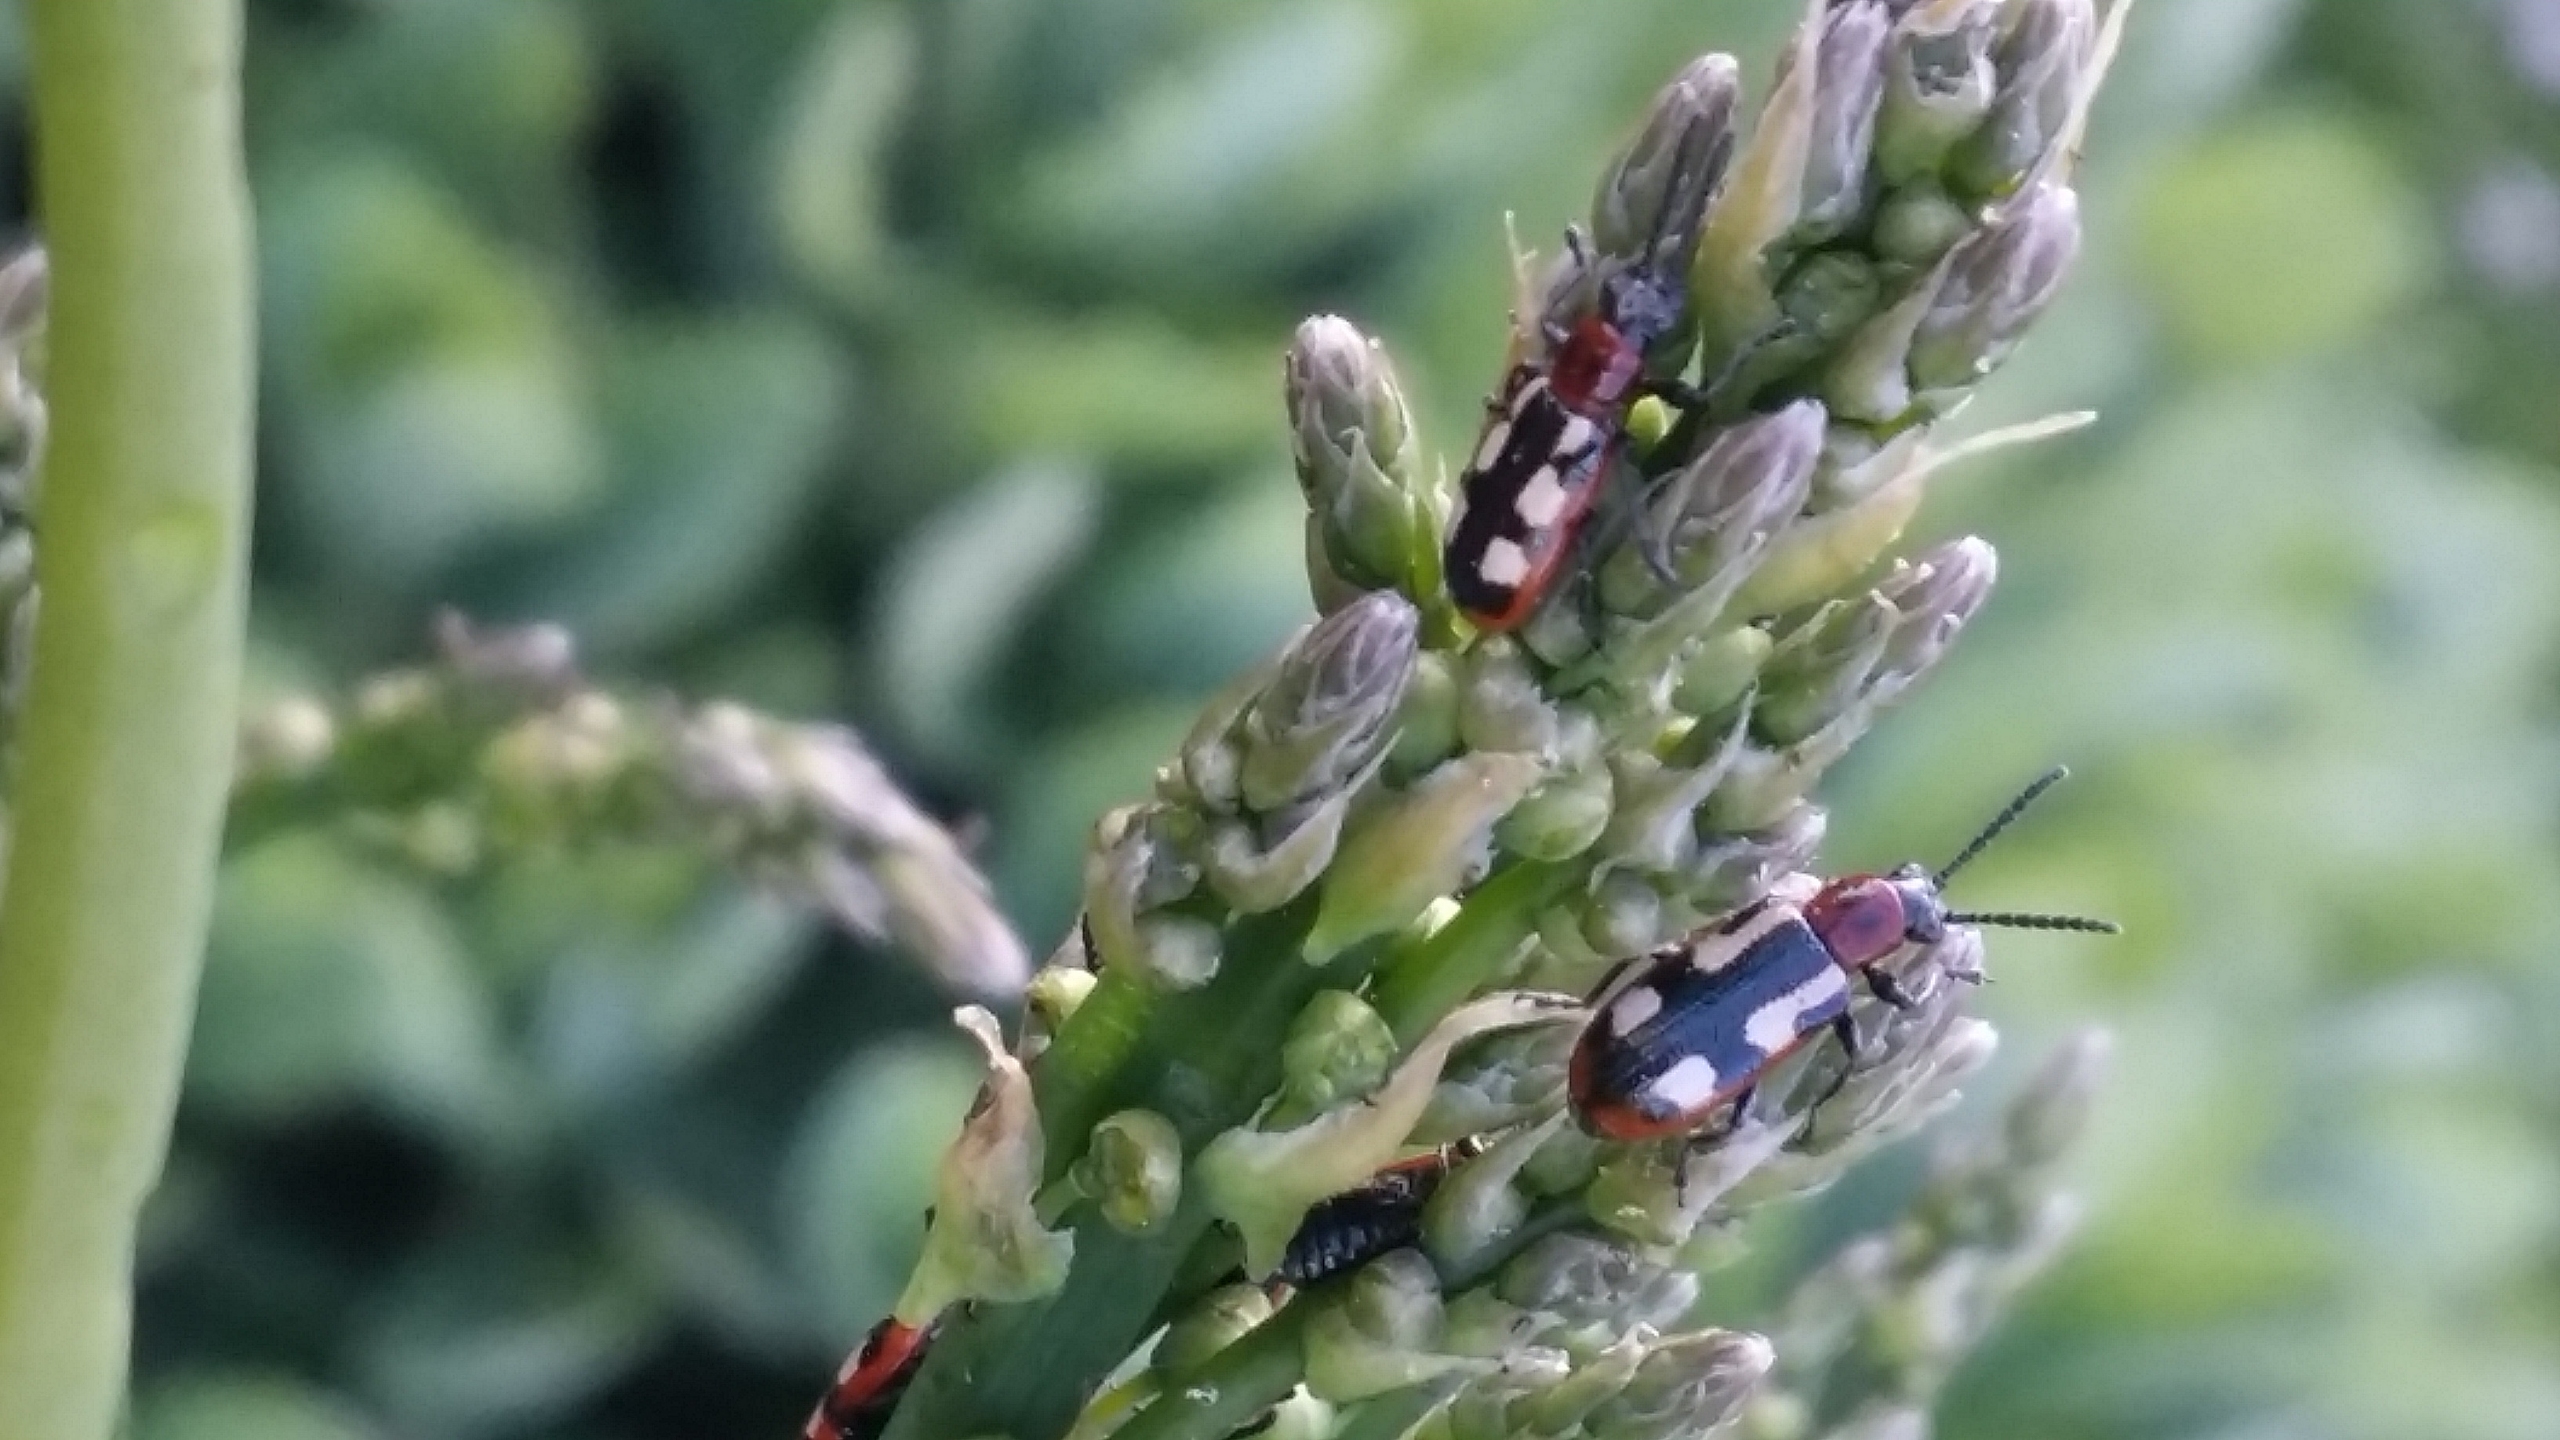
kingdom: Animalia
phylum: Arthropoda
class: Insecta
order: Coleoptera
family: Chrysomelidae
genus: Crioceris
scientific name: Crioceris asparagi
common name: Gulplettet aspargesbille
